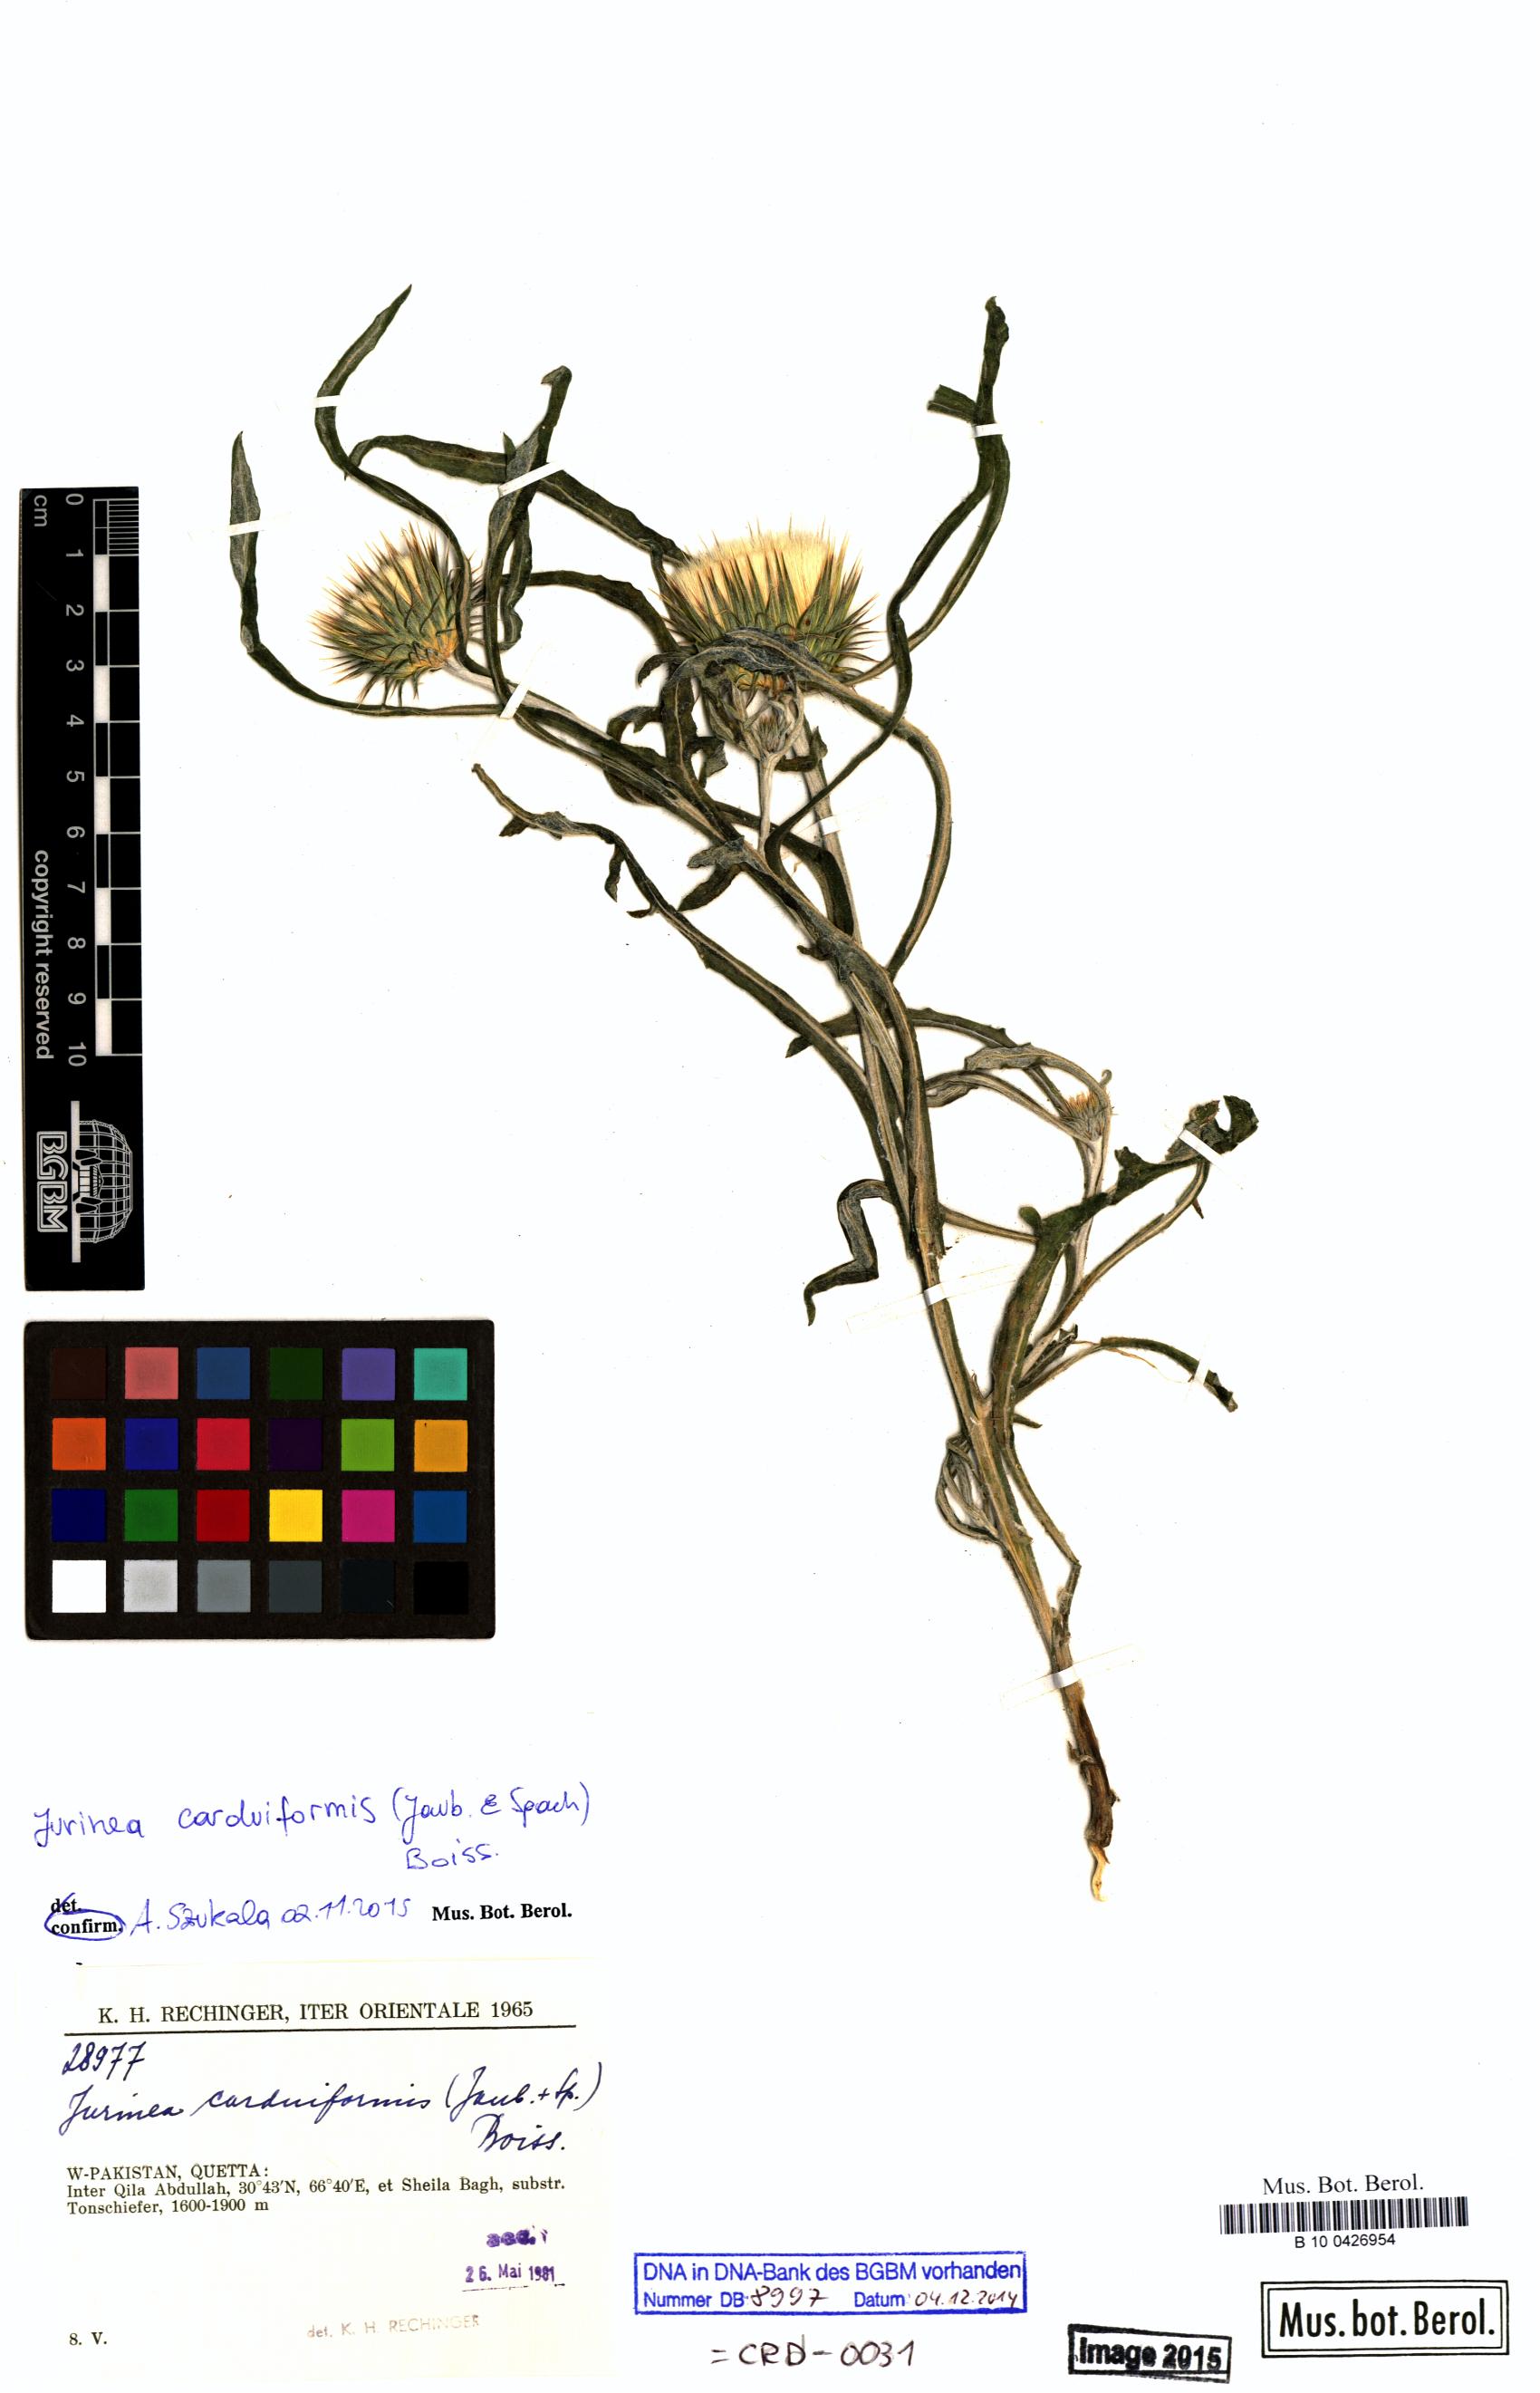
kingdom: Plantae
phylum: Tracheophyta
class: Magnoliopsida
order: Asterales
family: Asteraceae
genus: Jurinea
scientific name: Jurinea carduiformis
